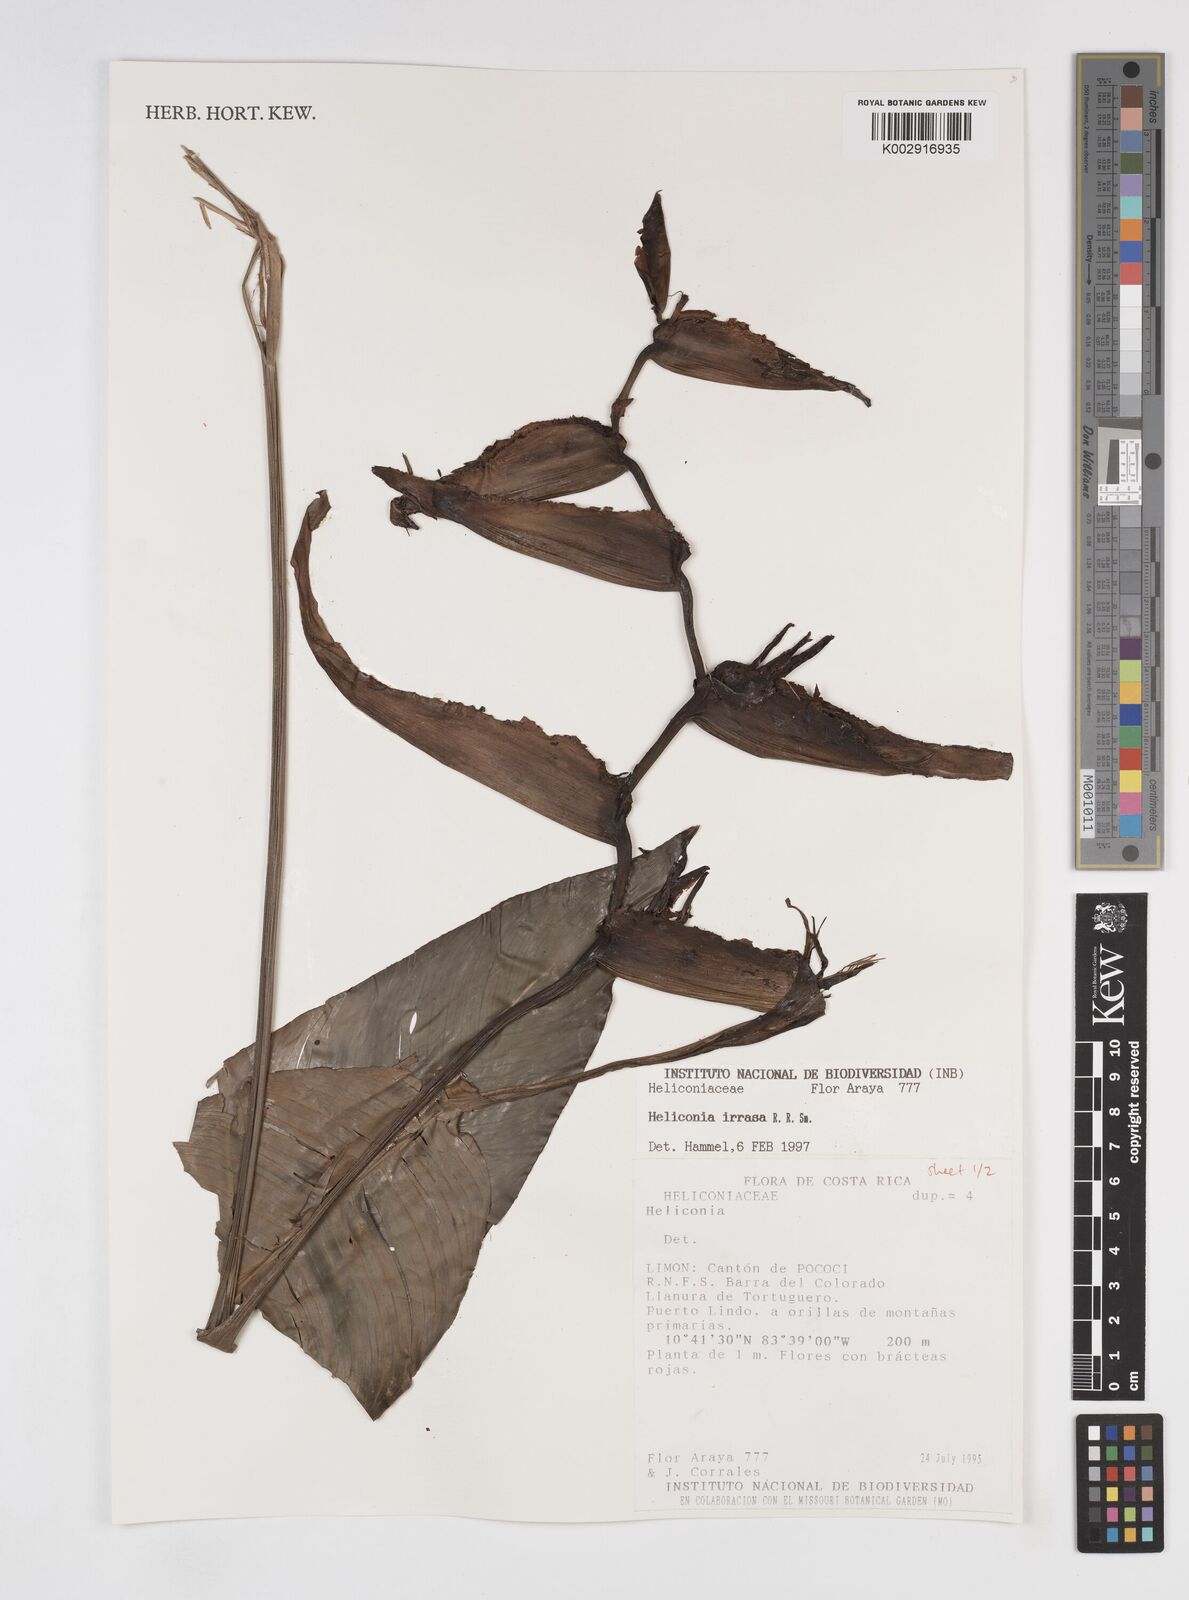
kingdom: Plantae
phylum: Tracheophyta
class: Liliopsida
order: Zingiberales
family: Heliconiaceae
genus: Heliconia
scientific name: Heliconia irrasa
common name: Wild plantain
